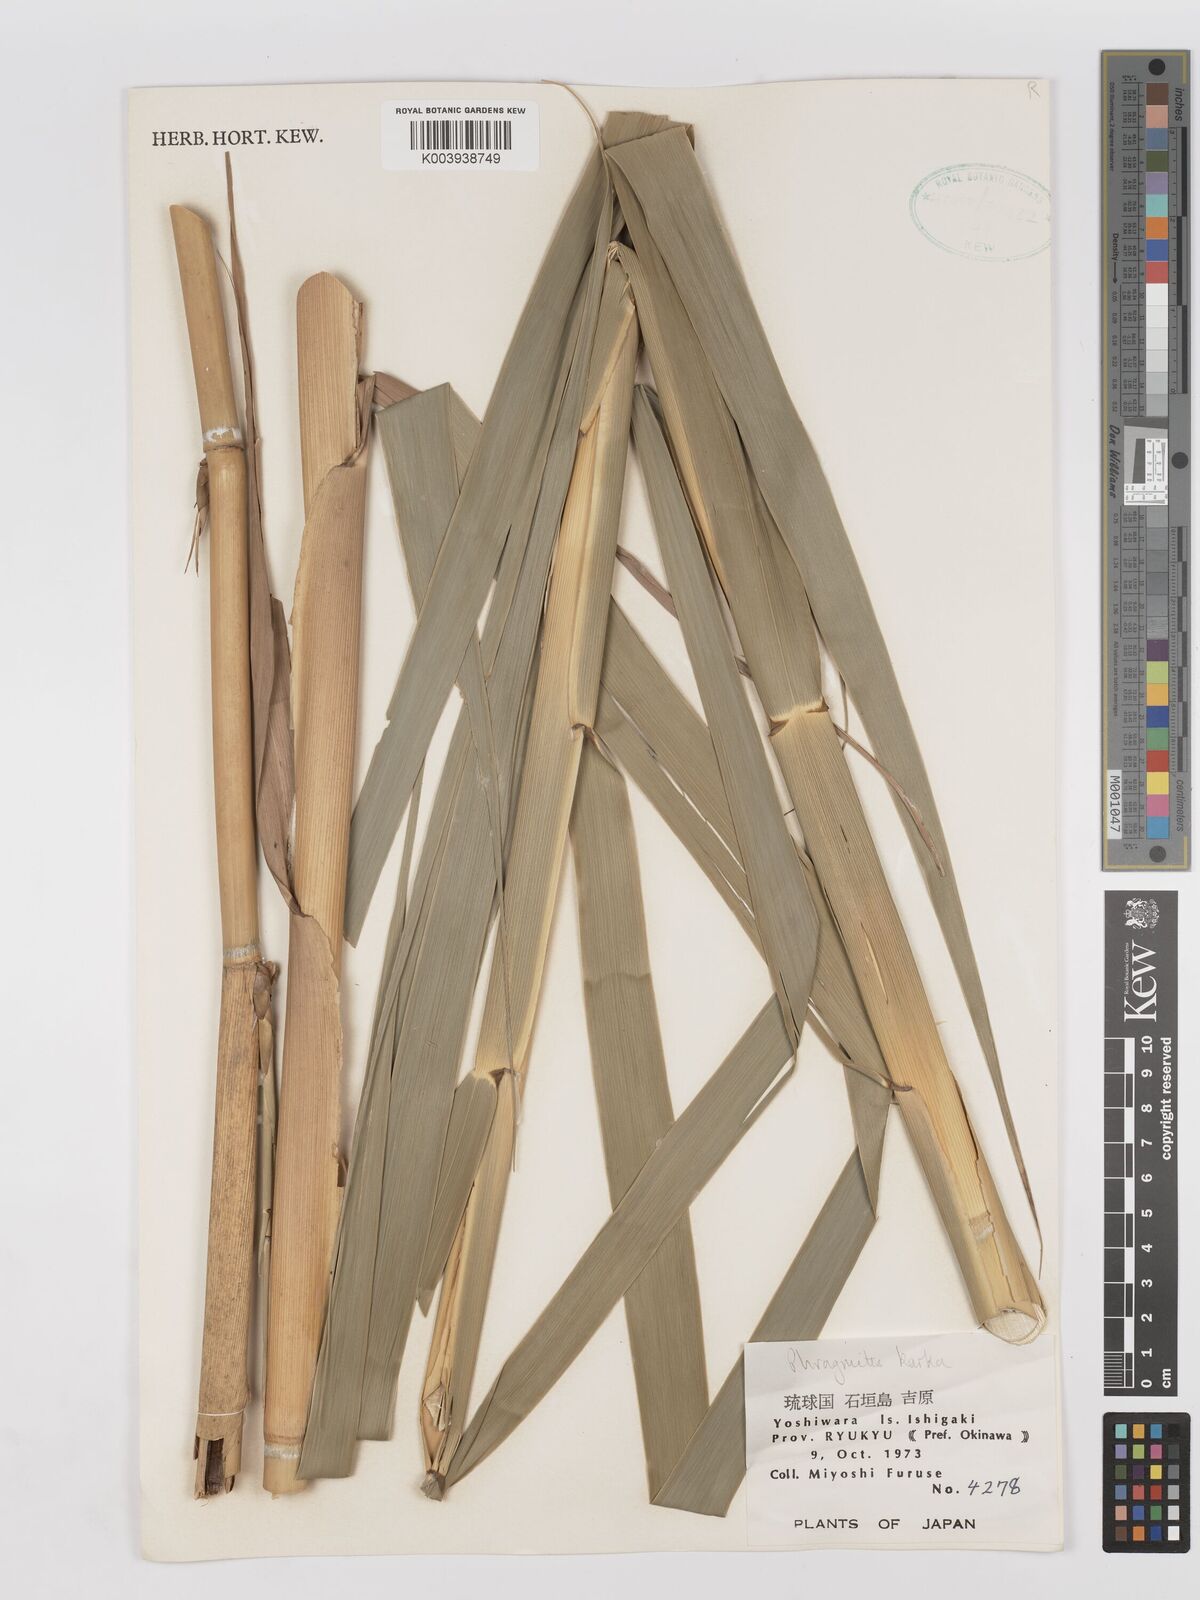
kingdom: Plantae
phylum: Tracheophyta
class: Liliopsida
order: Poales
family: Poaceae
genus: Phragmites
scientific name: Phragmites karka
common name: Tropical reed
